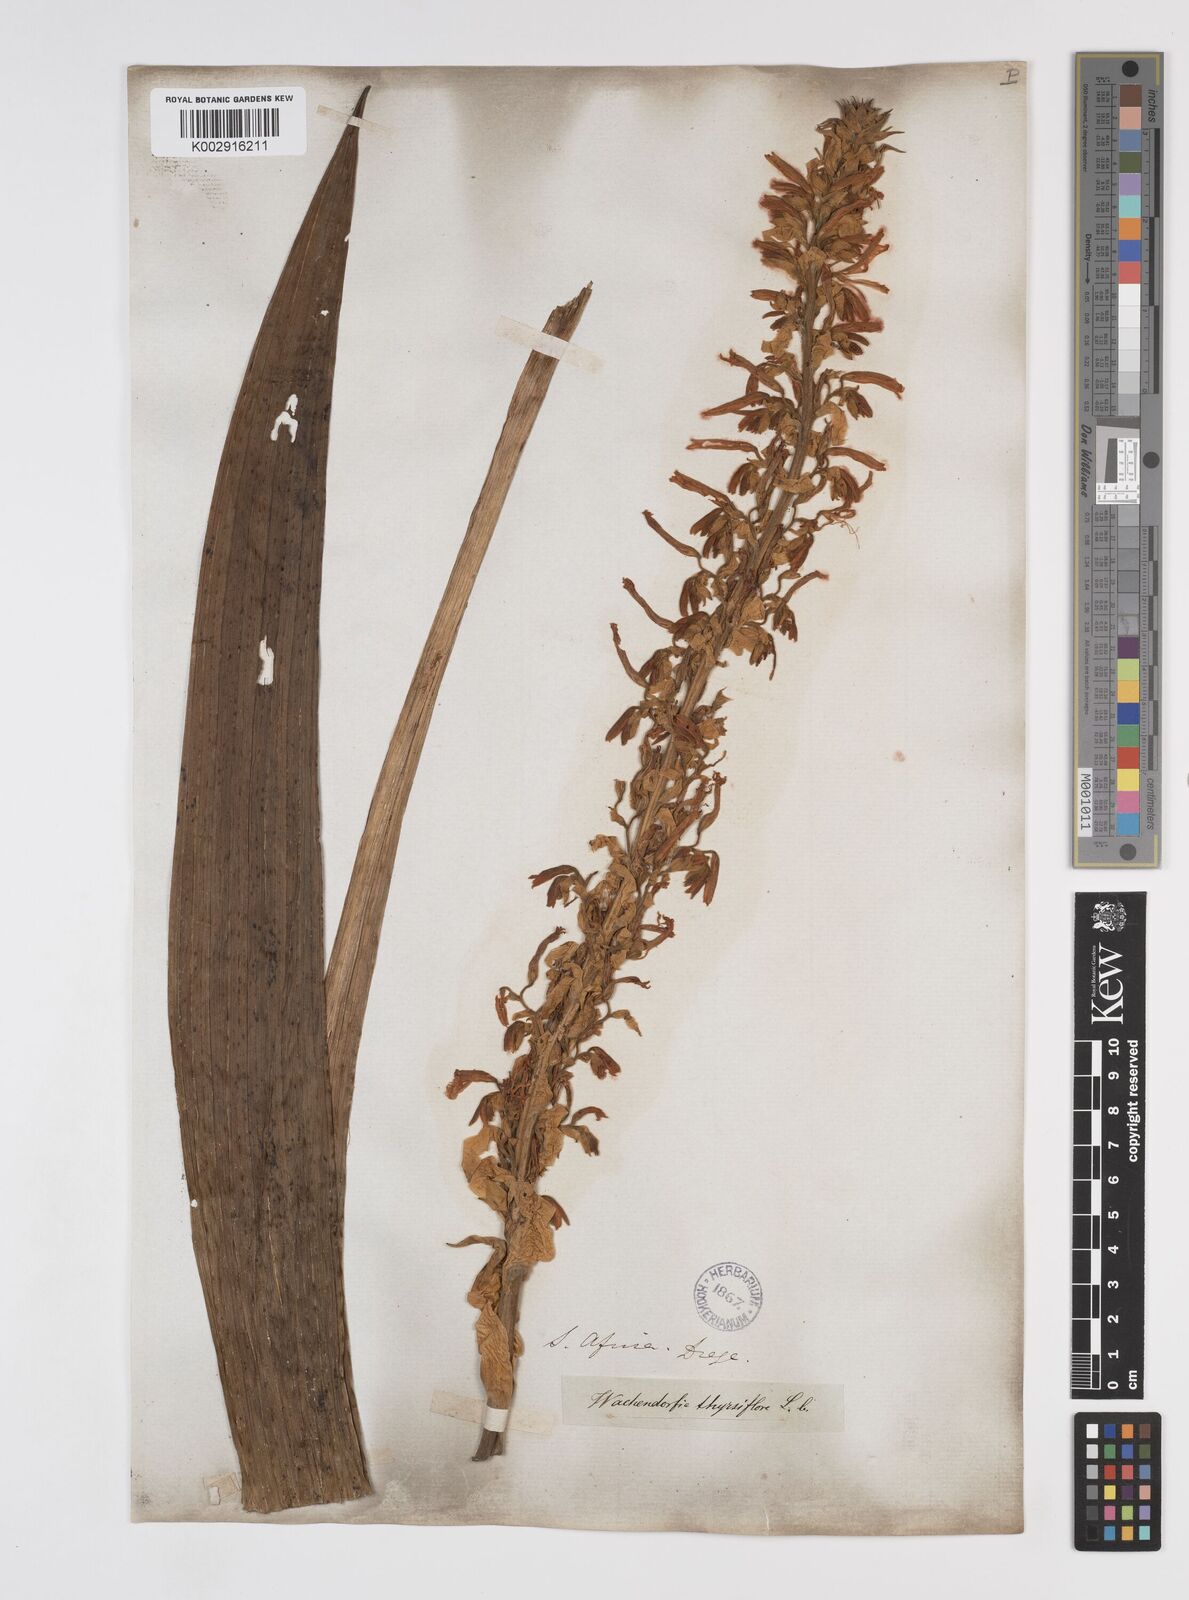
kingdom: Plantae
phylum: Tracheophyta
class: Liliopsida
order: Commelinales
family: Haemodoraceae
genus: Wachendorfia
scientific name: Wachendorfia thyrsiflora
